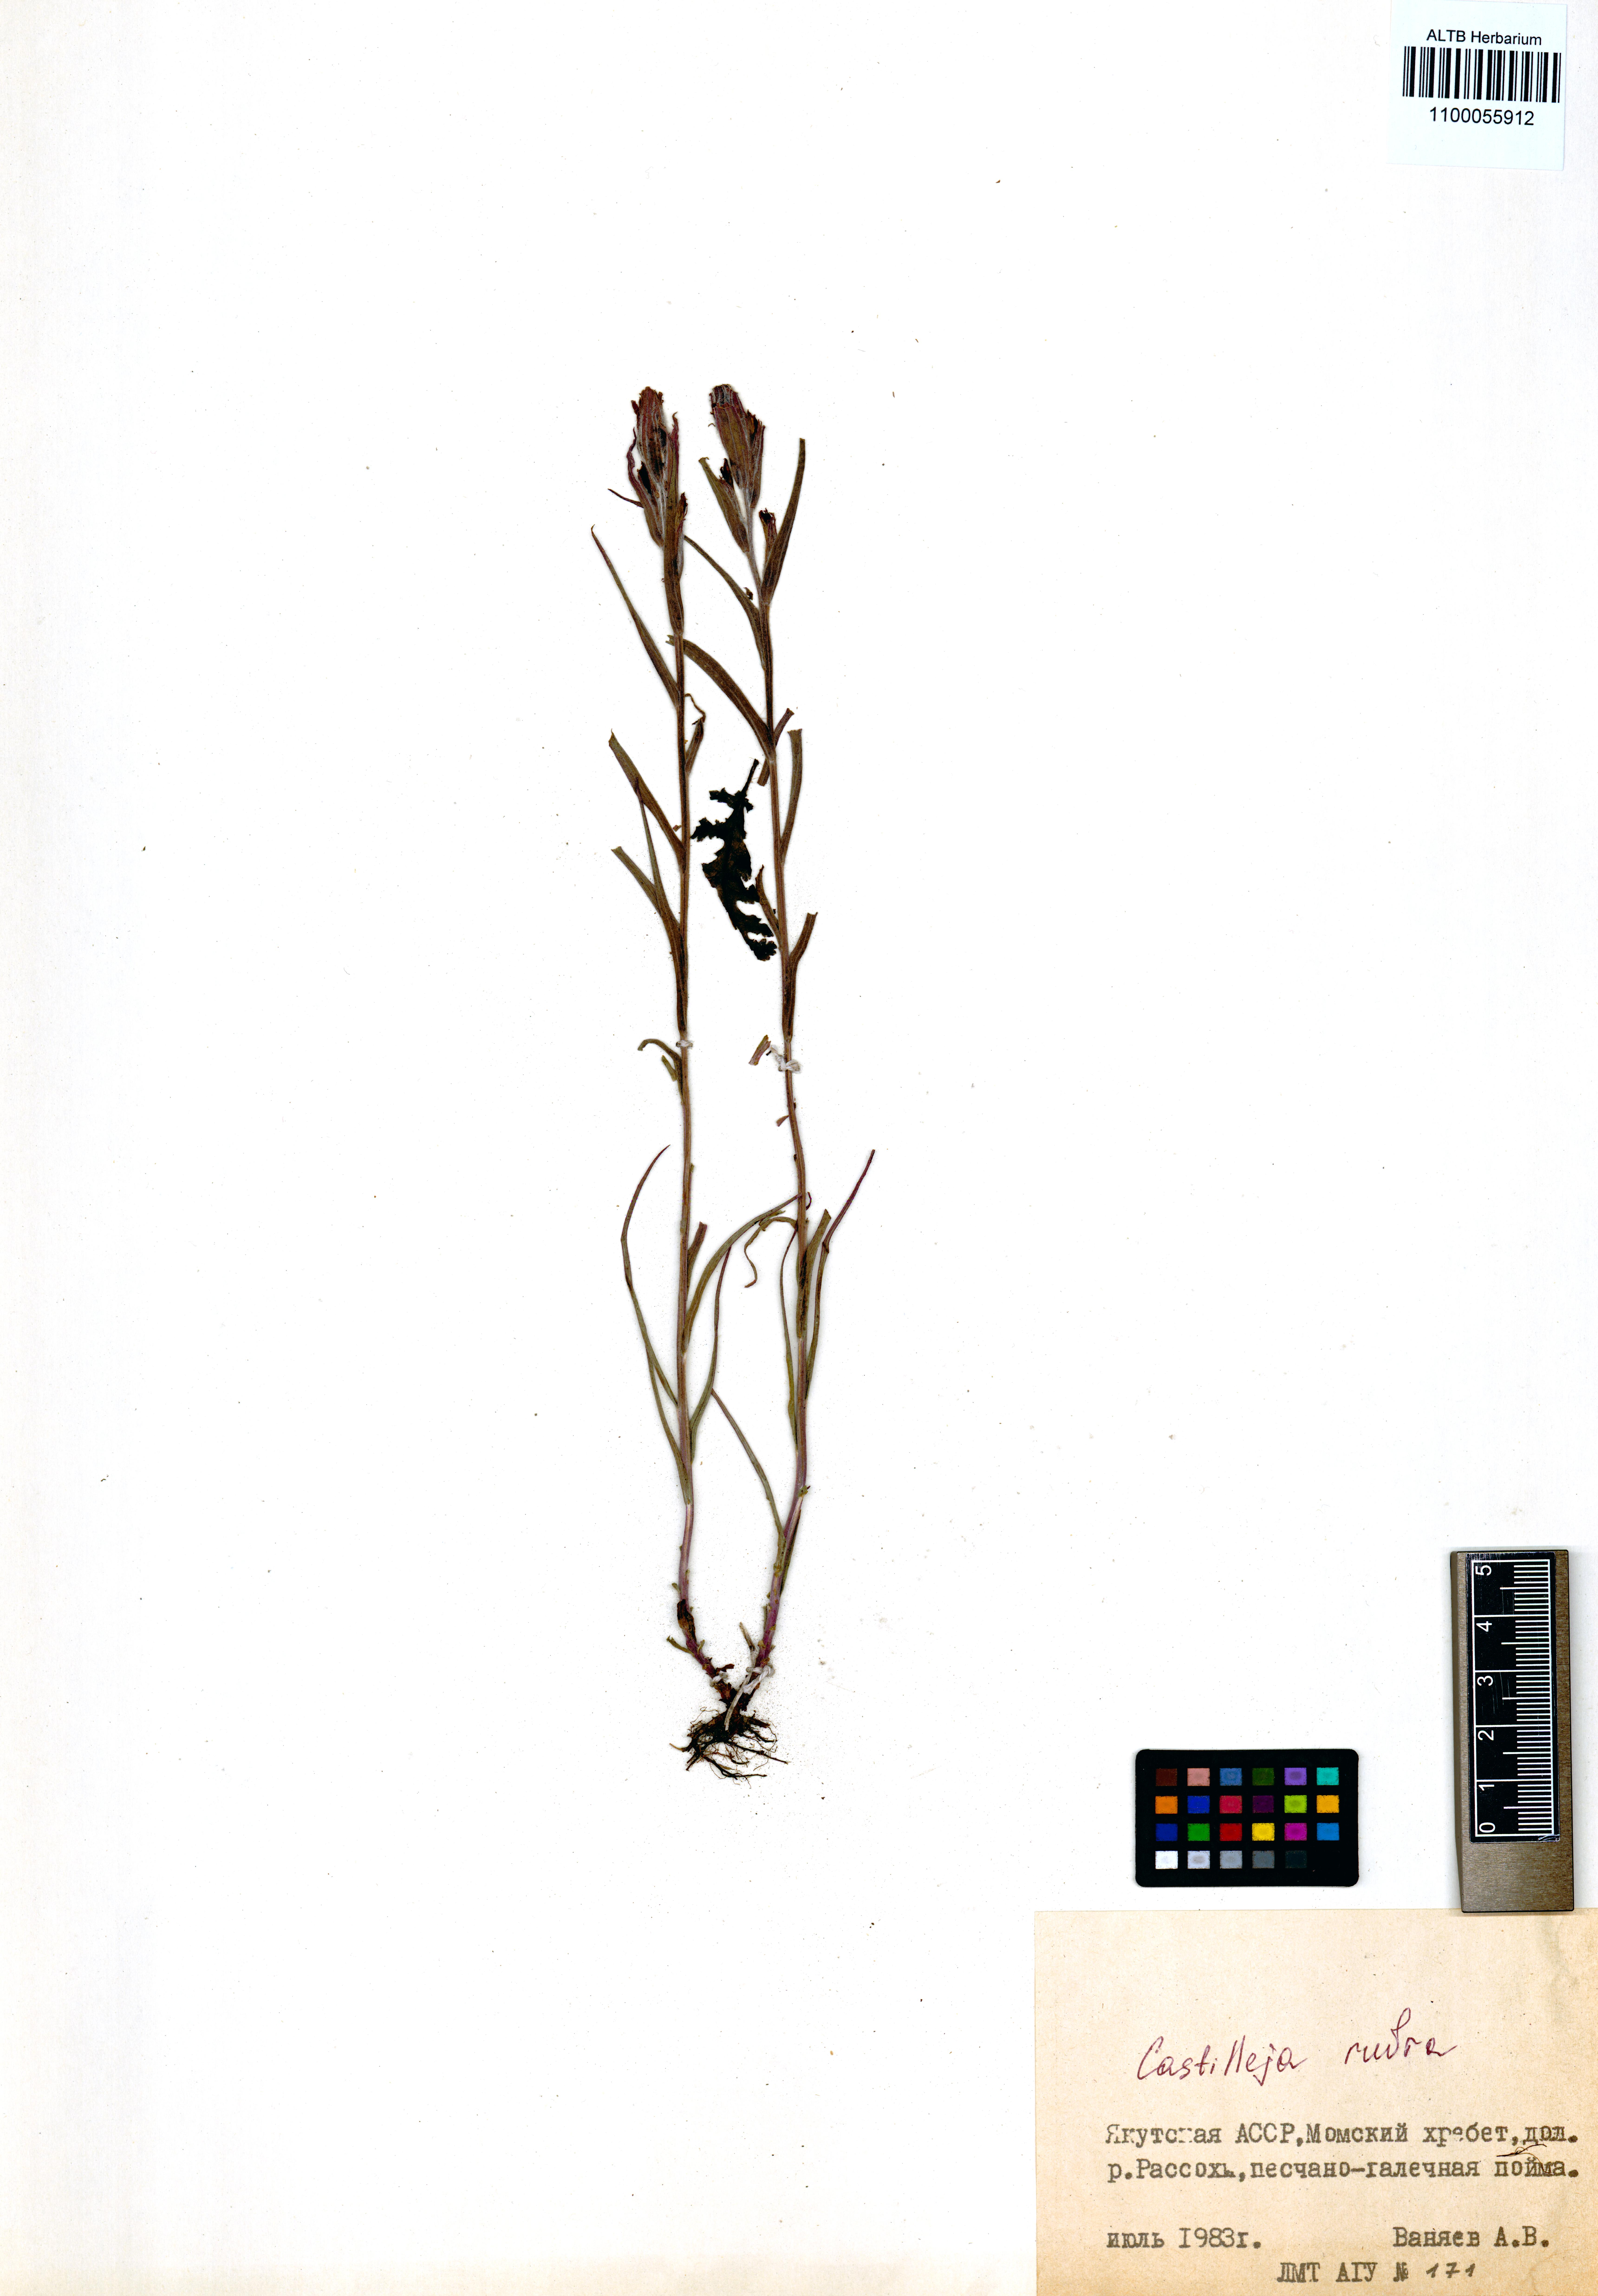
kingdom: Plantae
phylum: Tracheophyta
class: Magnoliopsida
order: Lamiales
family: Orobanchaceae
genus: Castilleja
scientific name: Castilleja rubra
